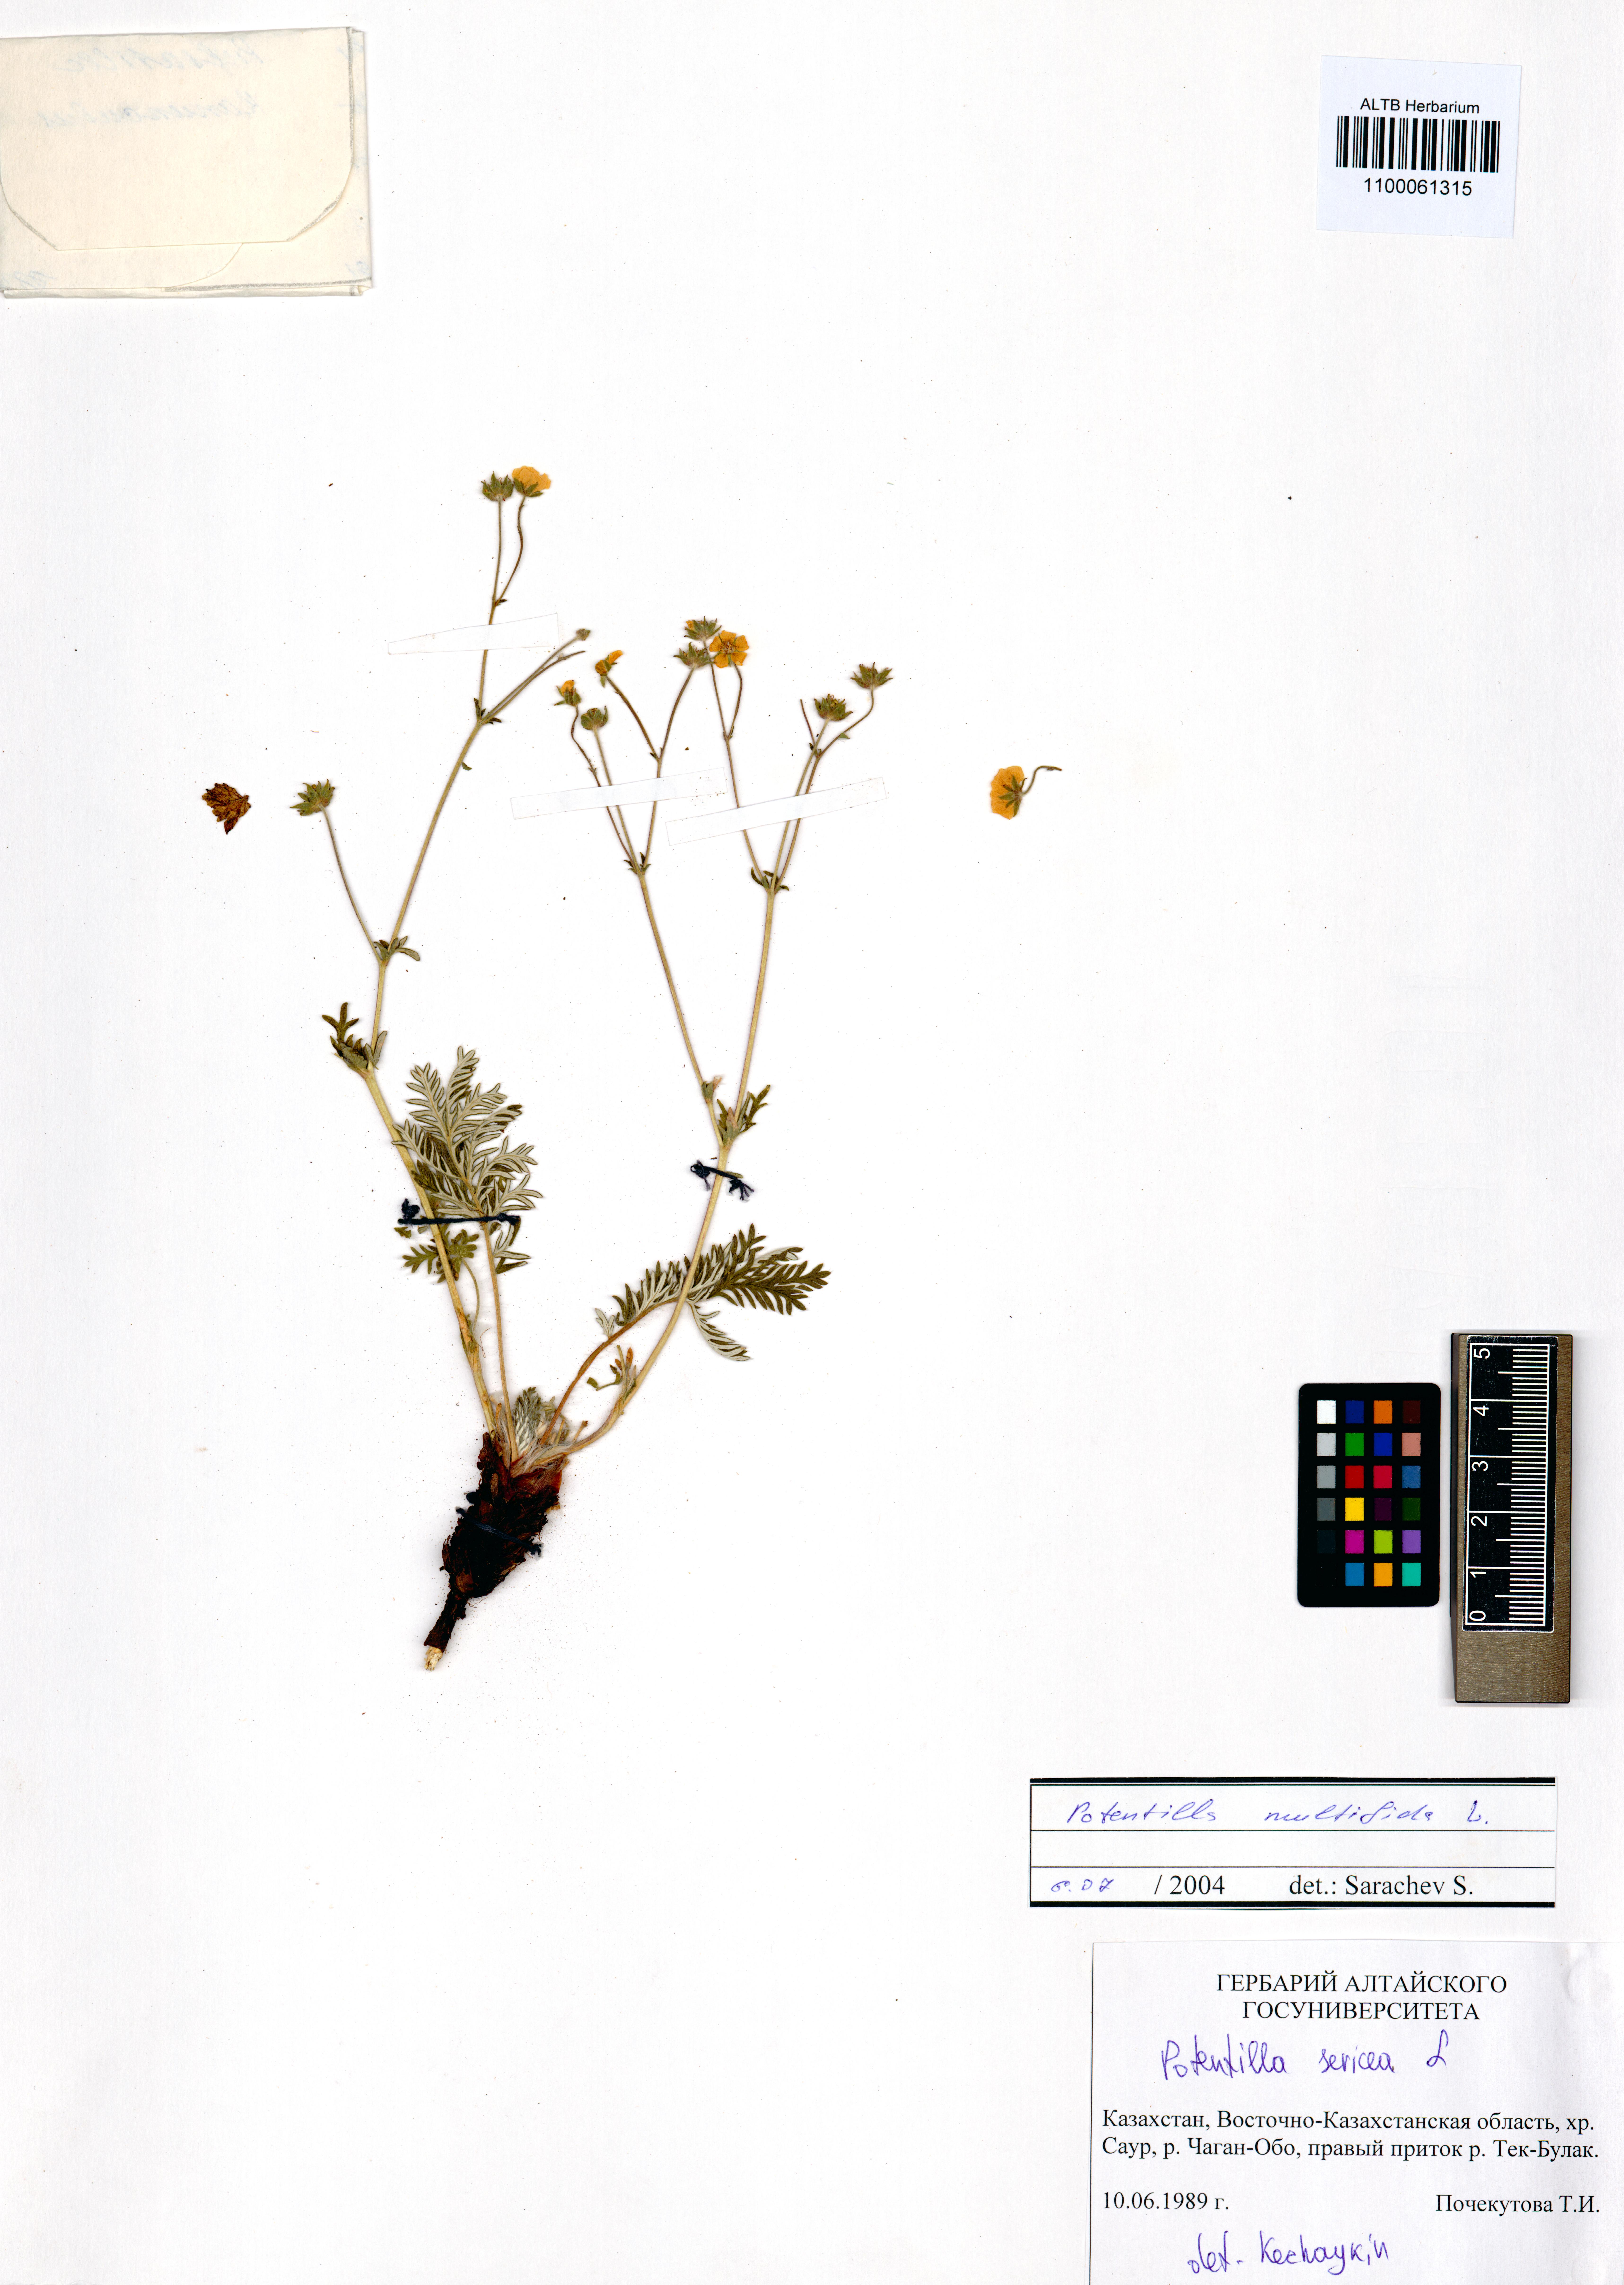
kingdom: Plantae
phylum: Tracheophyta
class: Magnoliopsida
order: Rosales
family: Rosaceae
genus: Potentilla
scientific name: Potentilla sericea
